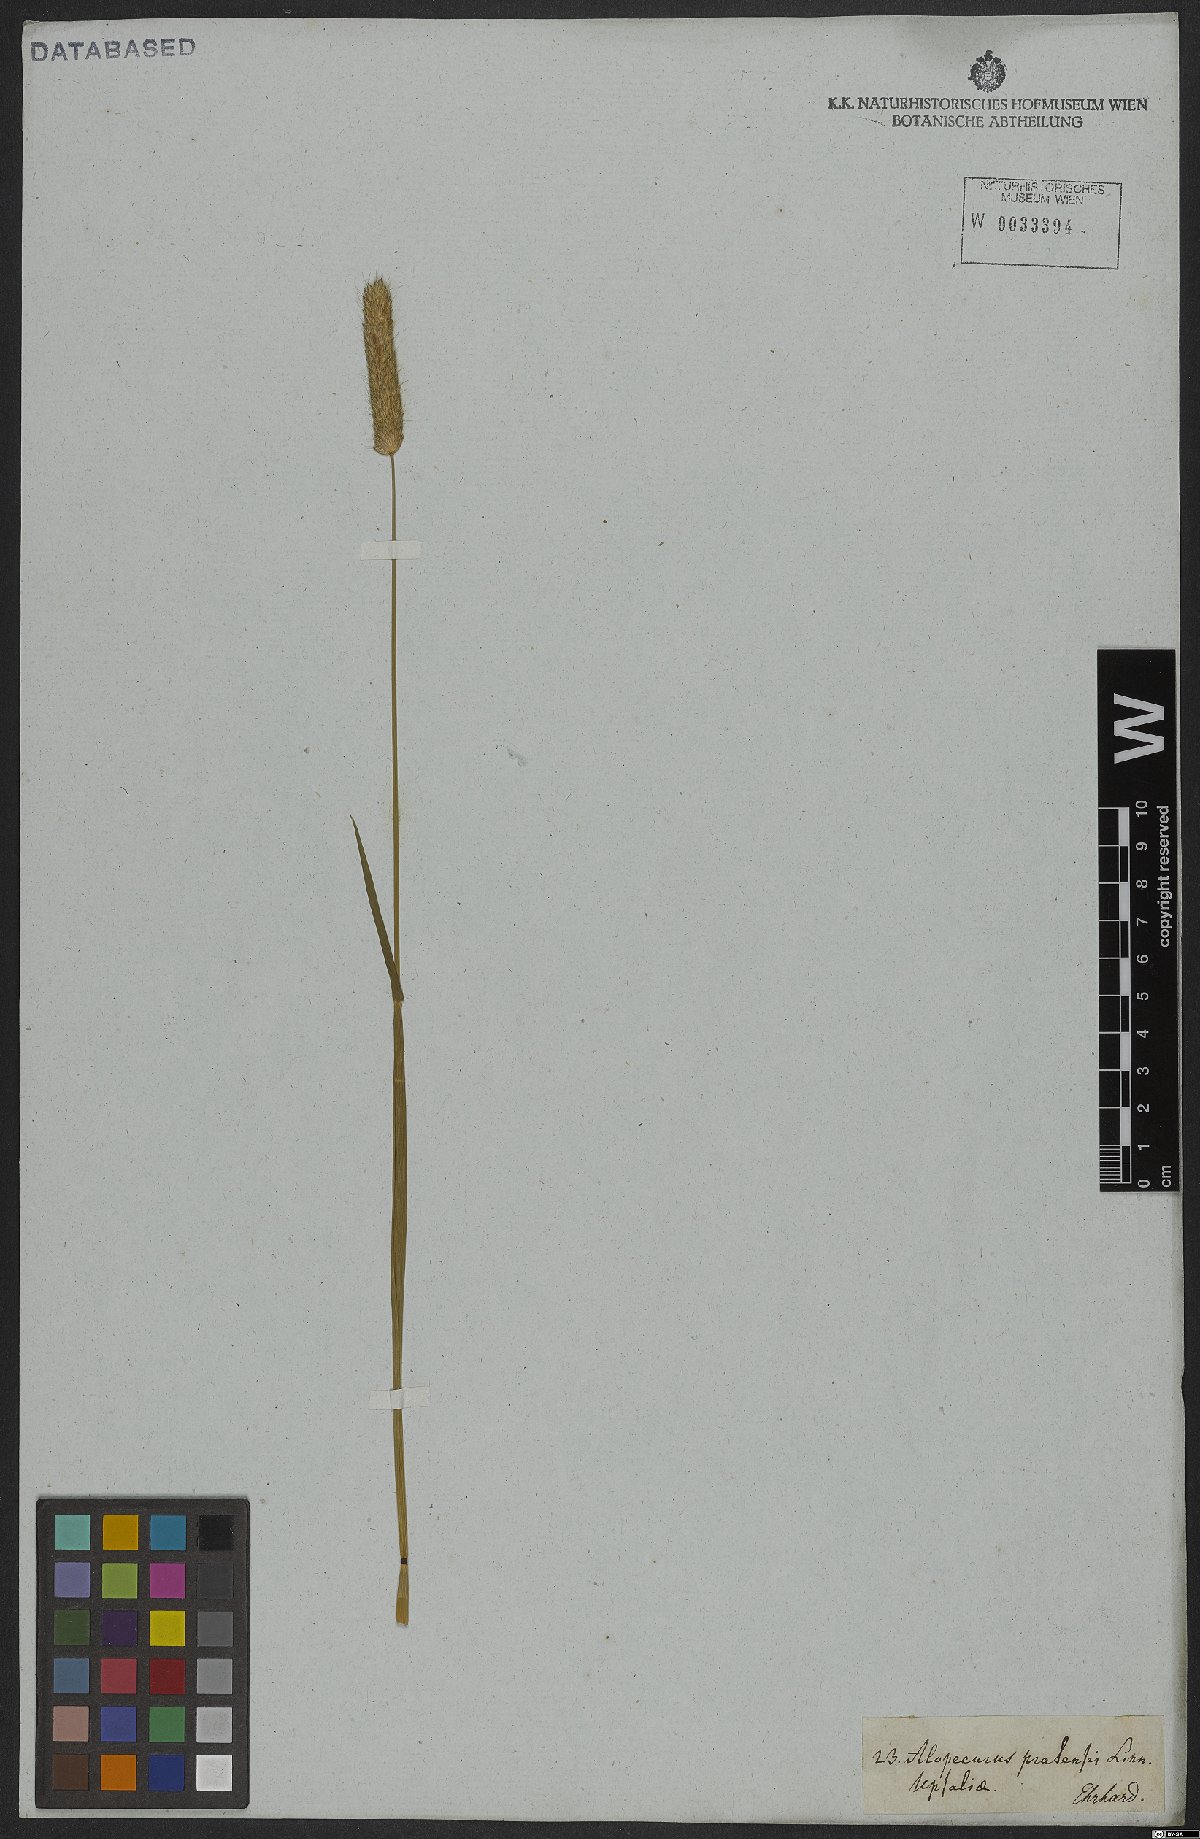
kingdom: Plantae
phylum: Tracheophyta
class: Liliopsida
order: Poales
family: Poaceae
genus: Alopecurus
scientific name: Alopecurus pratensis
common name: Meadow foxtail
